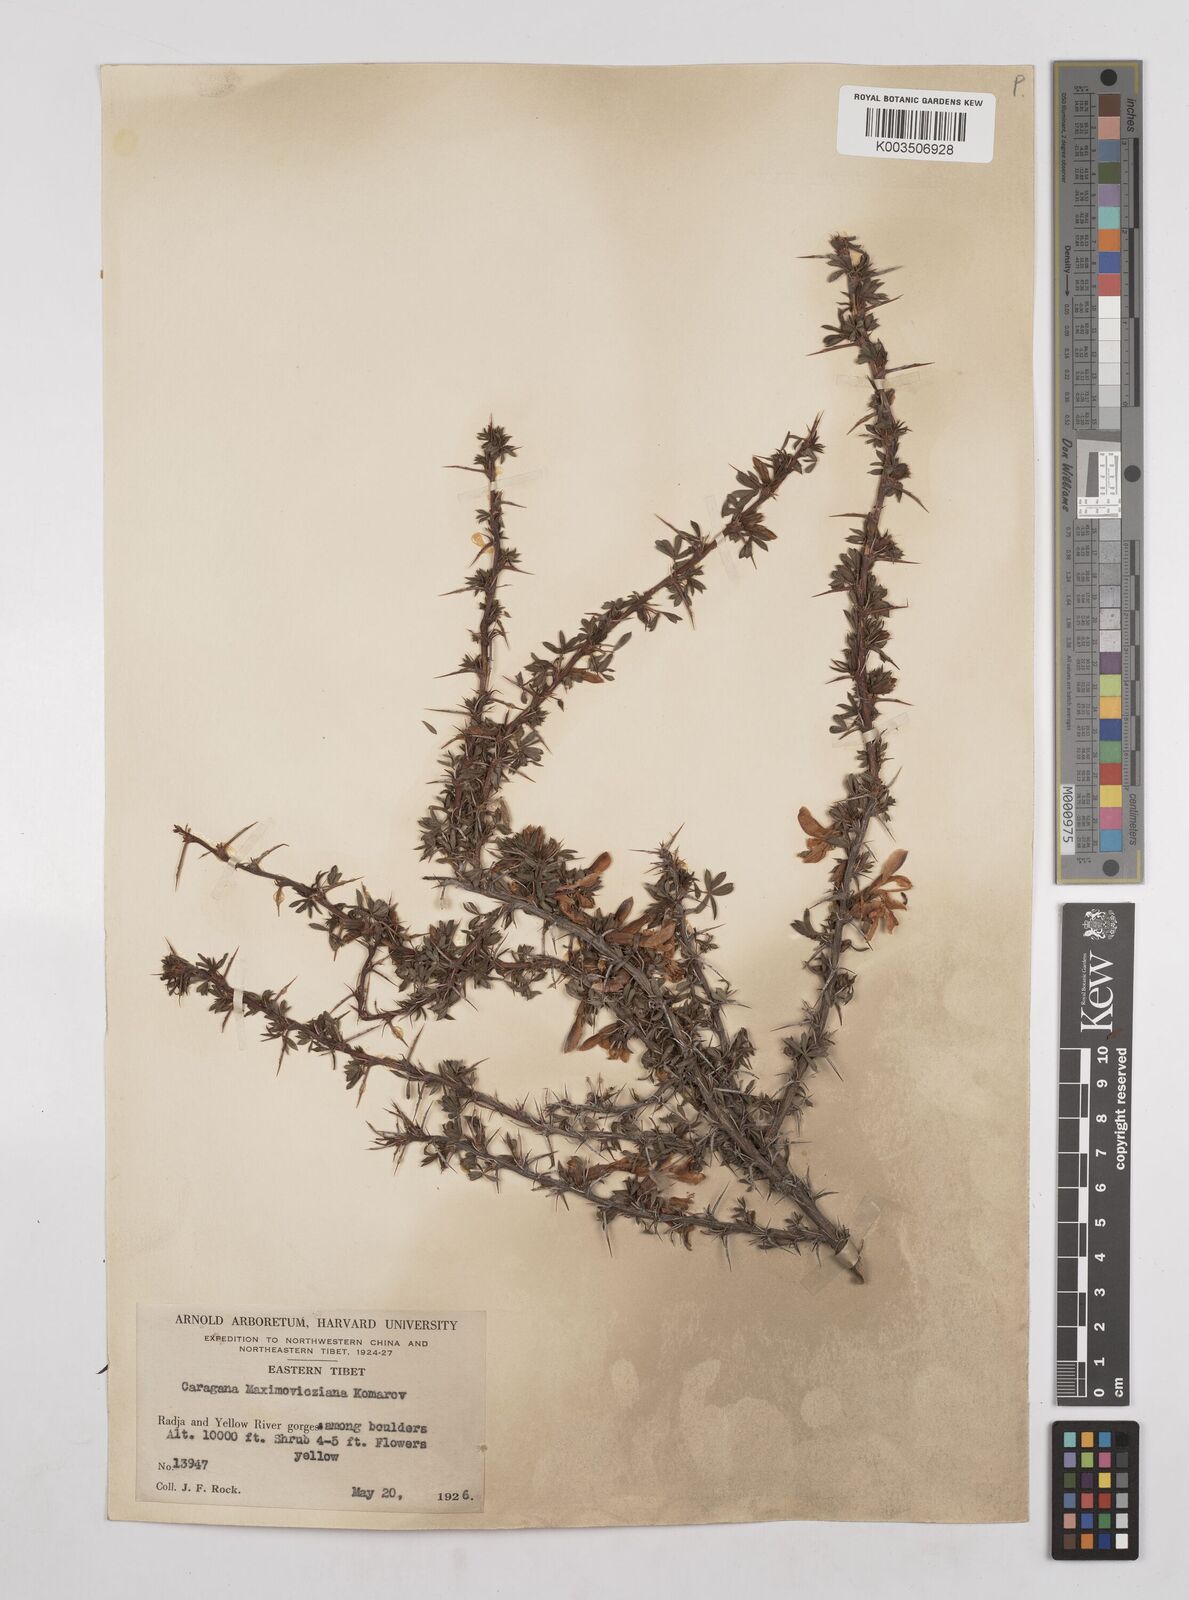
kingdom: Plantae
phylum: Tracheophyta
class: Magnoliopsida
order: Fabales
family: Fabaceae
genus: Caragana
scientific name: Caragana erinacea
